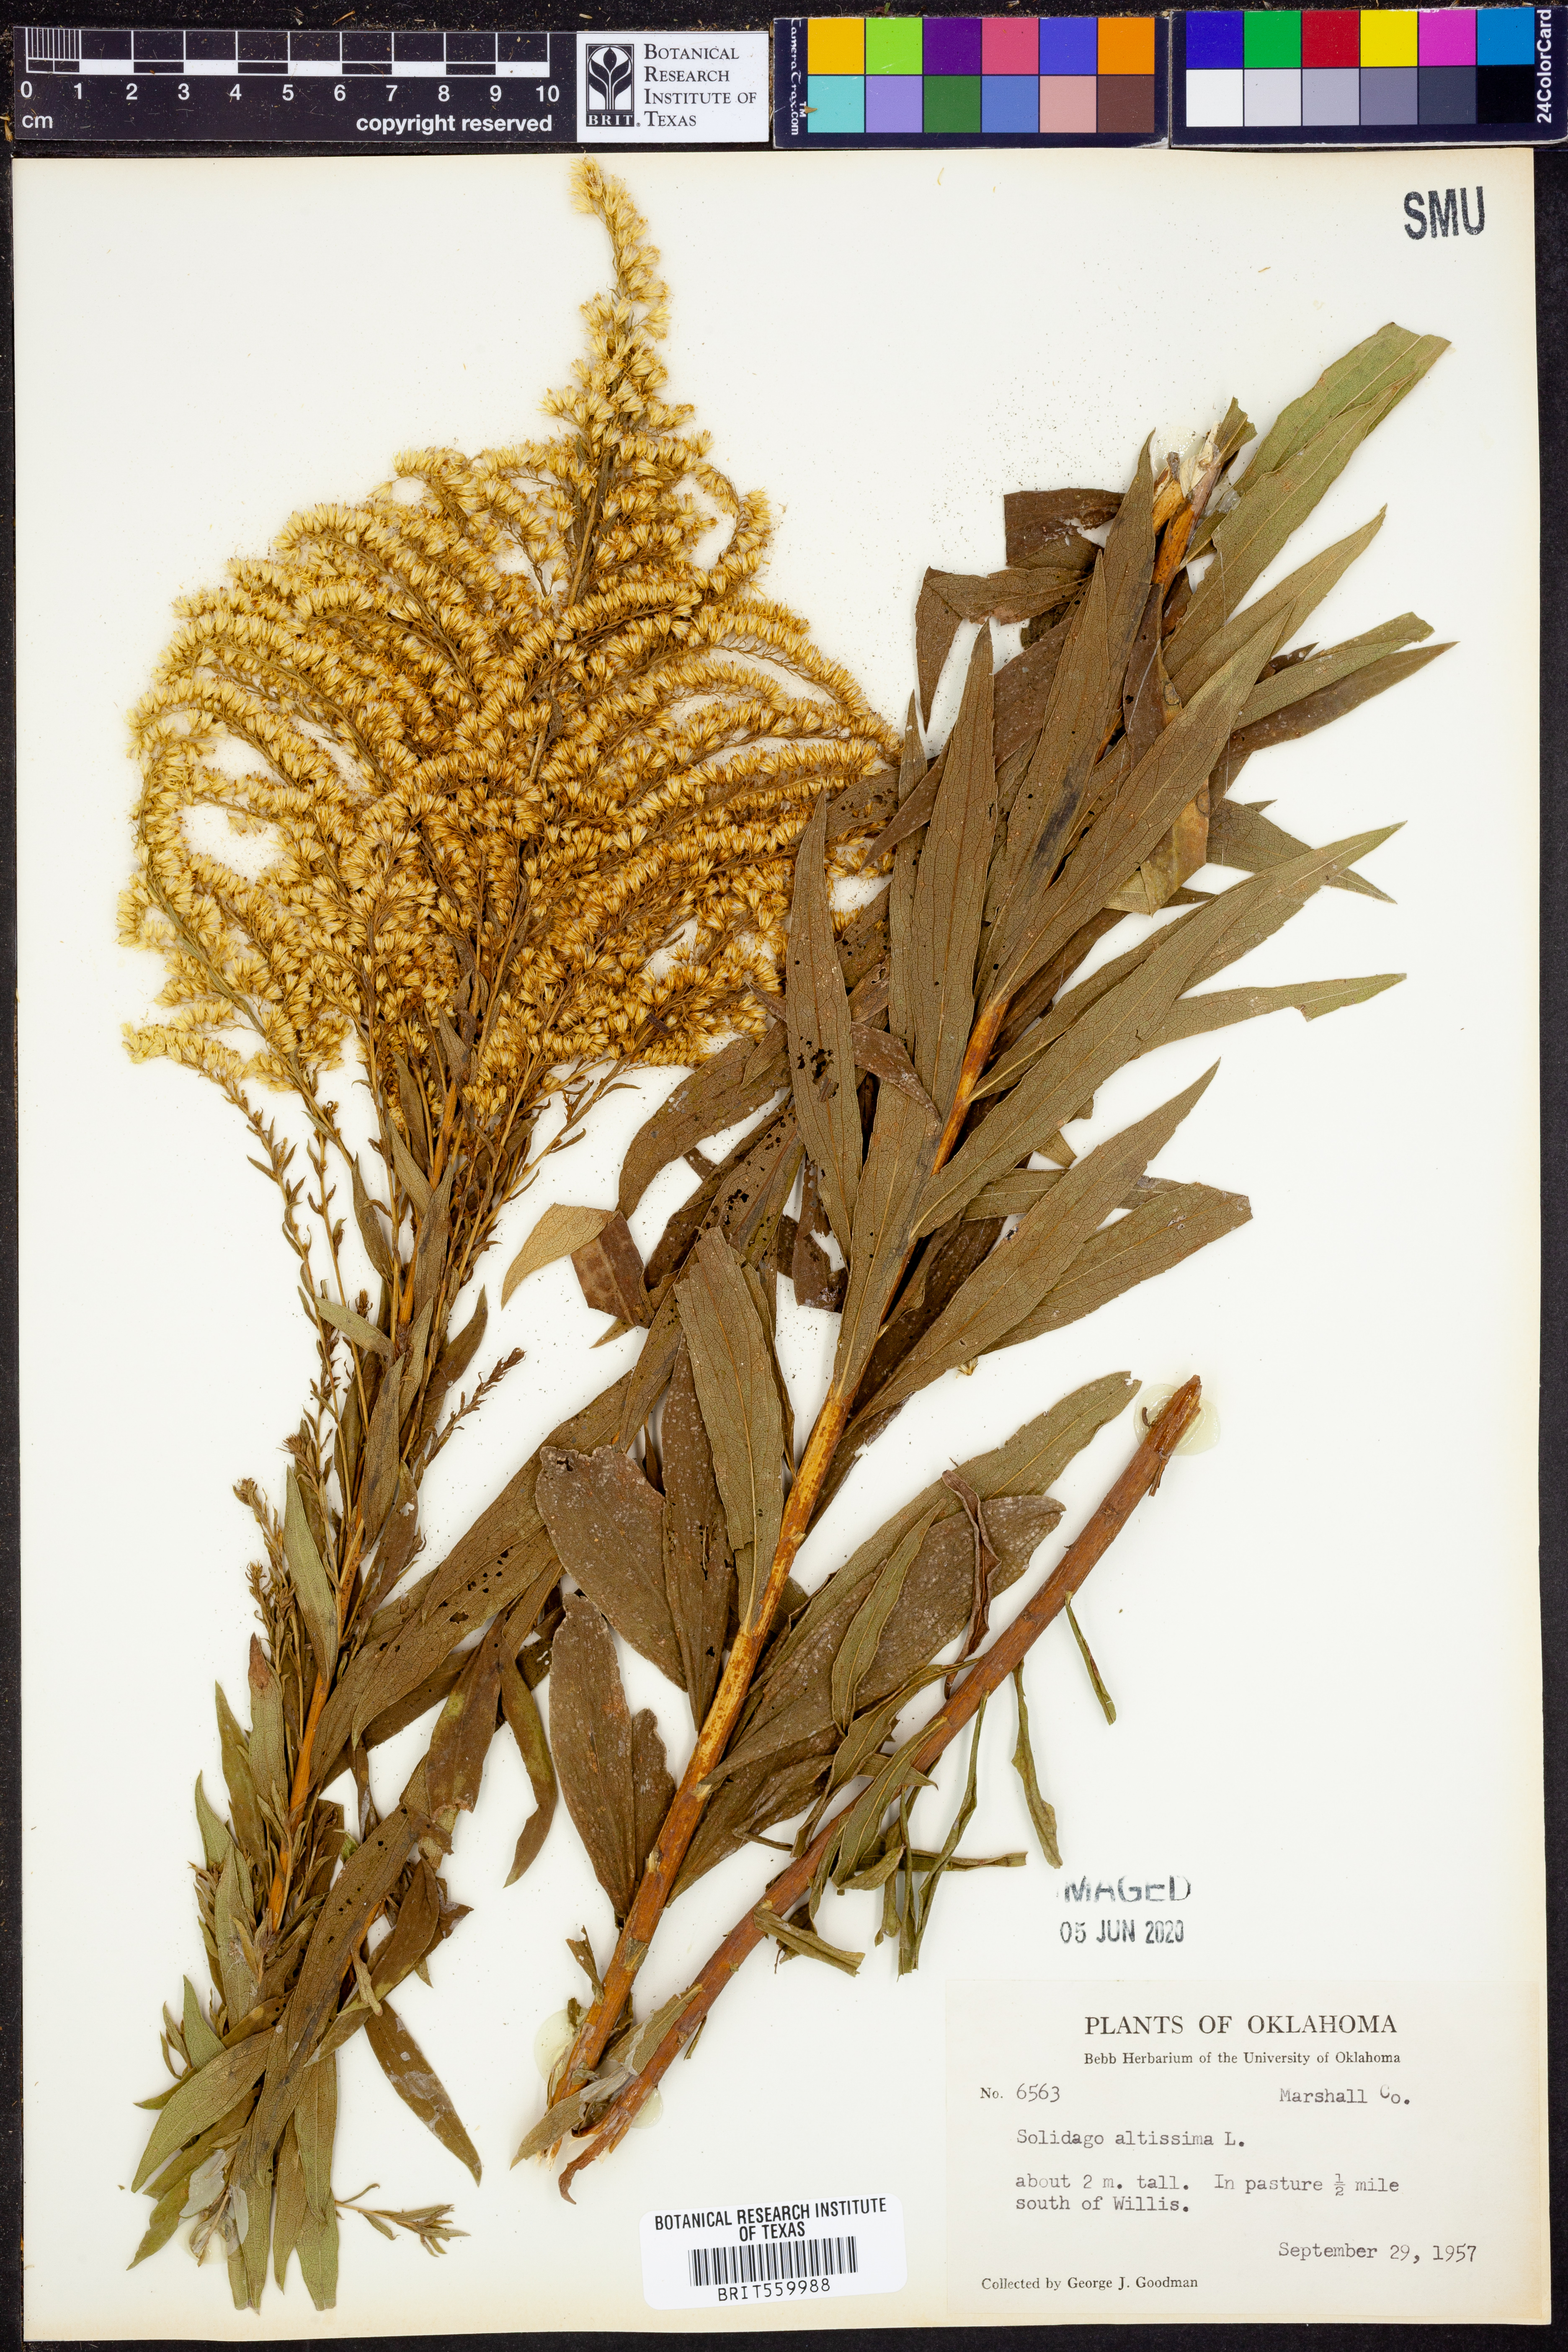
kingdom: Plantae
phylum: Tracheophyta
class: Magnoliopsida
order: Asterales
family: Asteraceae
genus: Solidago
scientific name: Solidago altissima
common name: Late goldenrod
